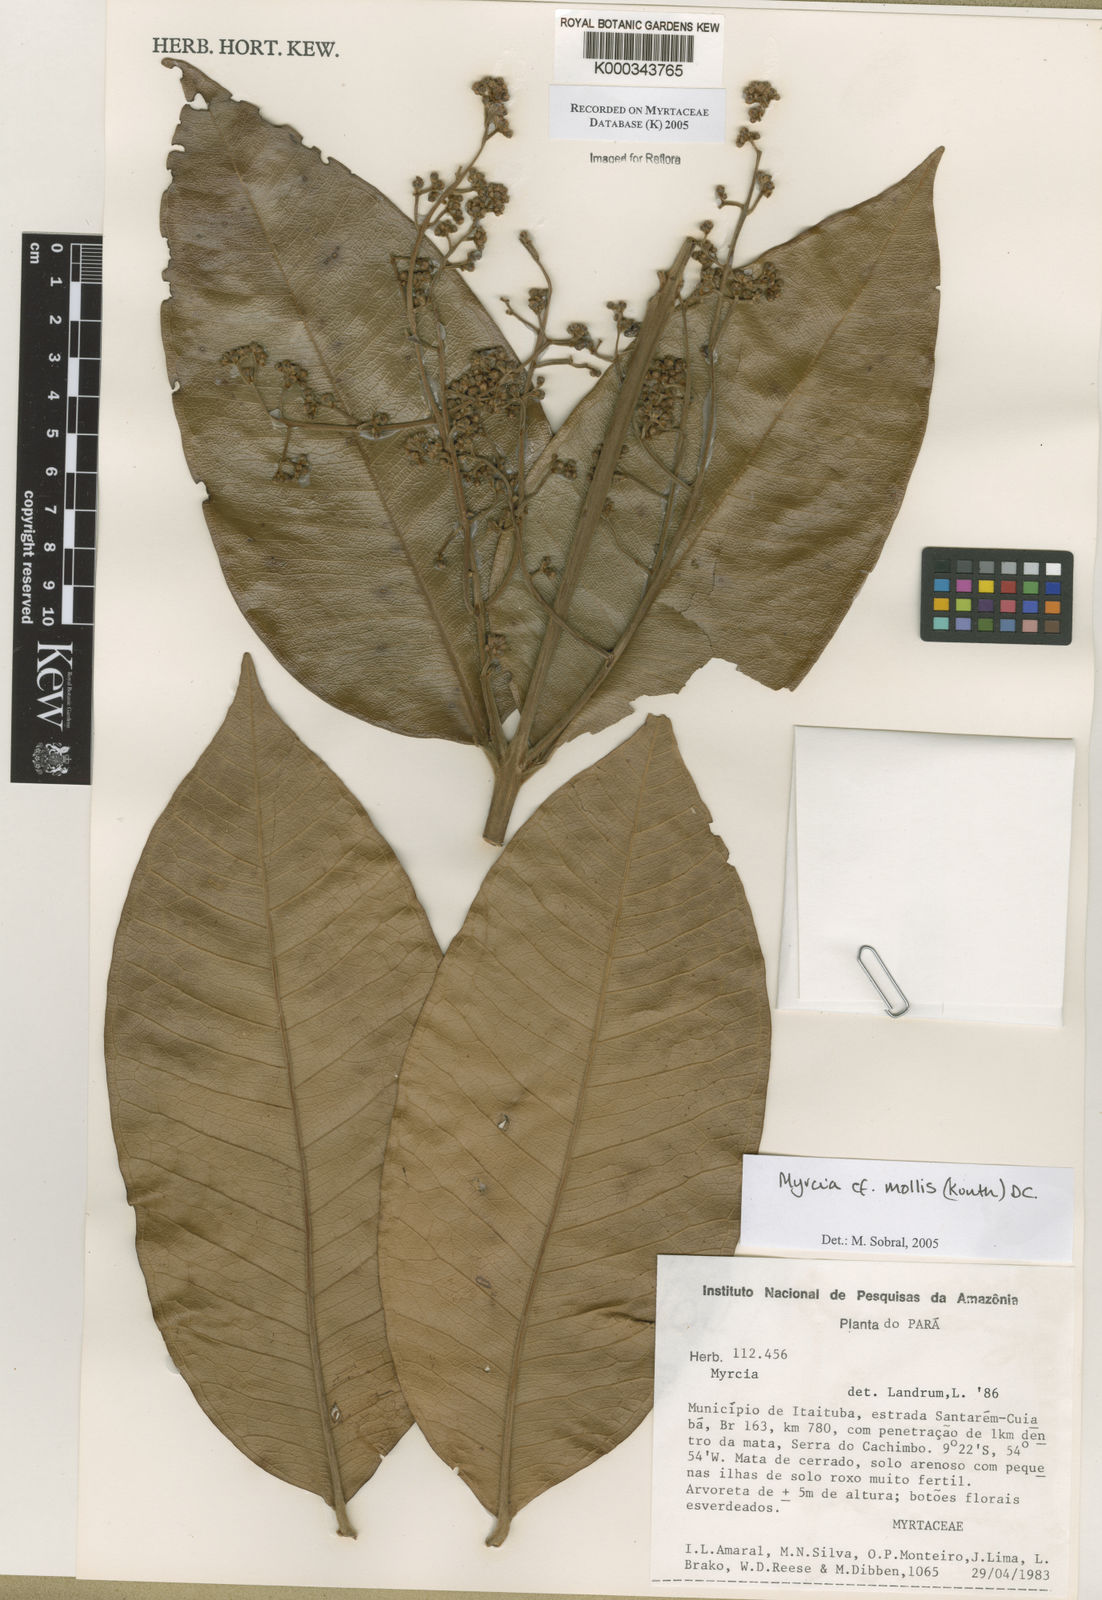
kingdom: Plantae
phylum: Tracheophyta
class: Magnoliopsida
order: Myrtales
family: Myrtaceae
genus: Myrcia
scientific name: Myrcia mollis
